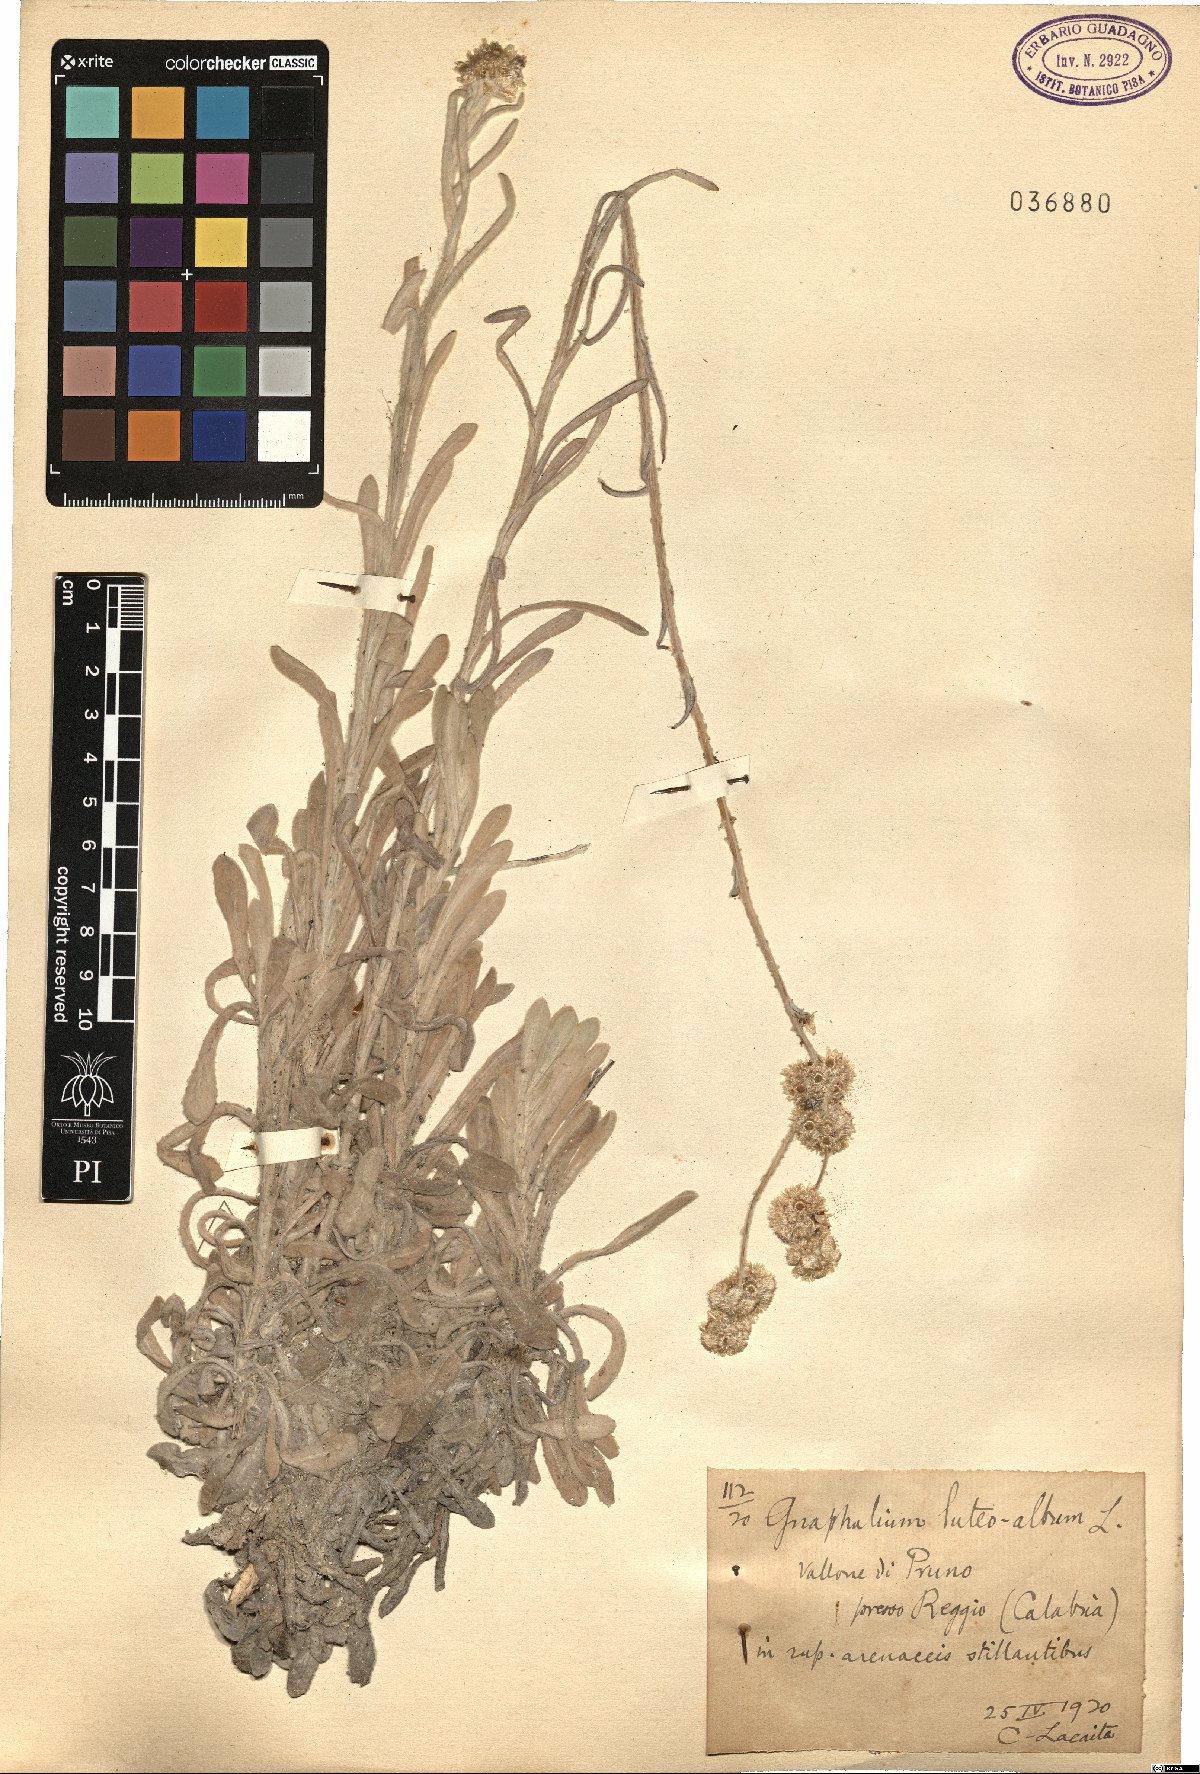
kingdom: Plantae
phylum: Tracheophyta
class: Magnoliopsida
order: Asterales
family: Asteraceae
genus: Helichrysum
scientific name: Helichrysum luteoalbum
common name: Daisy
